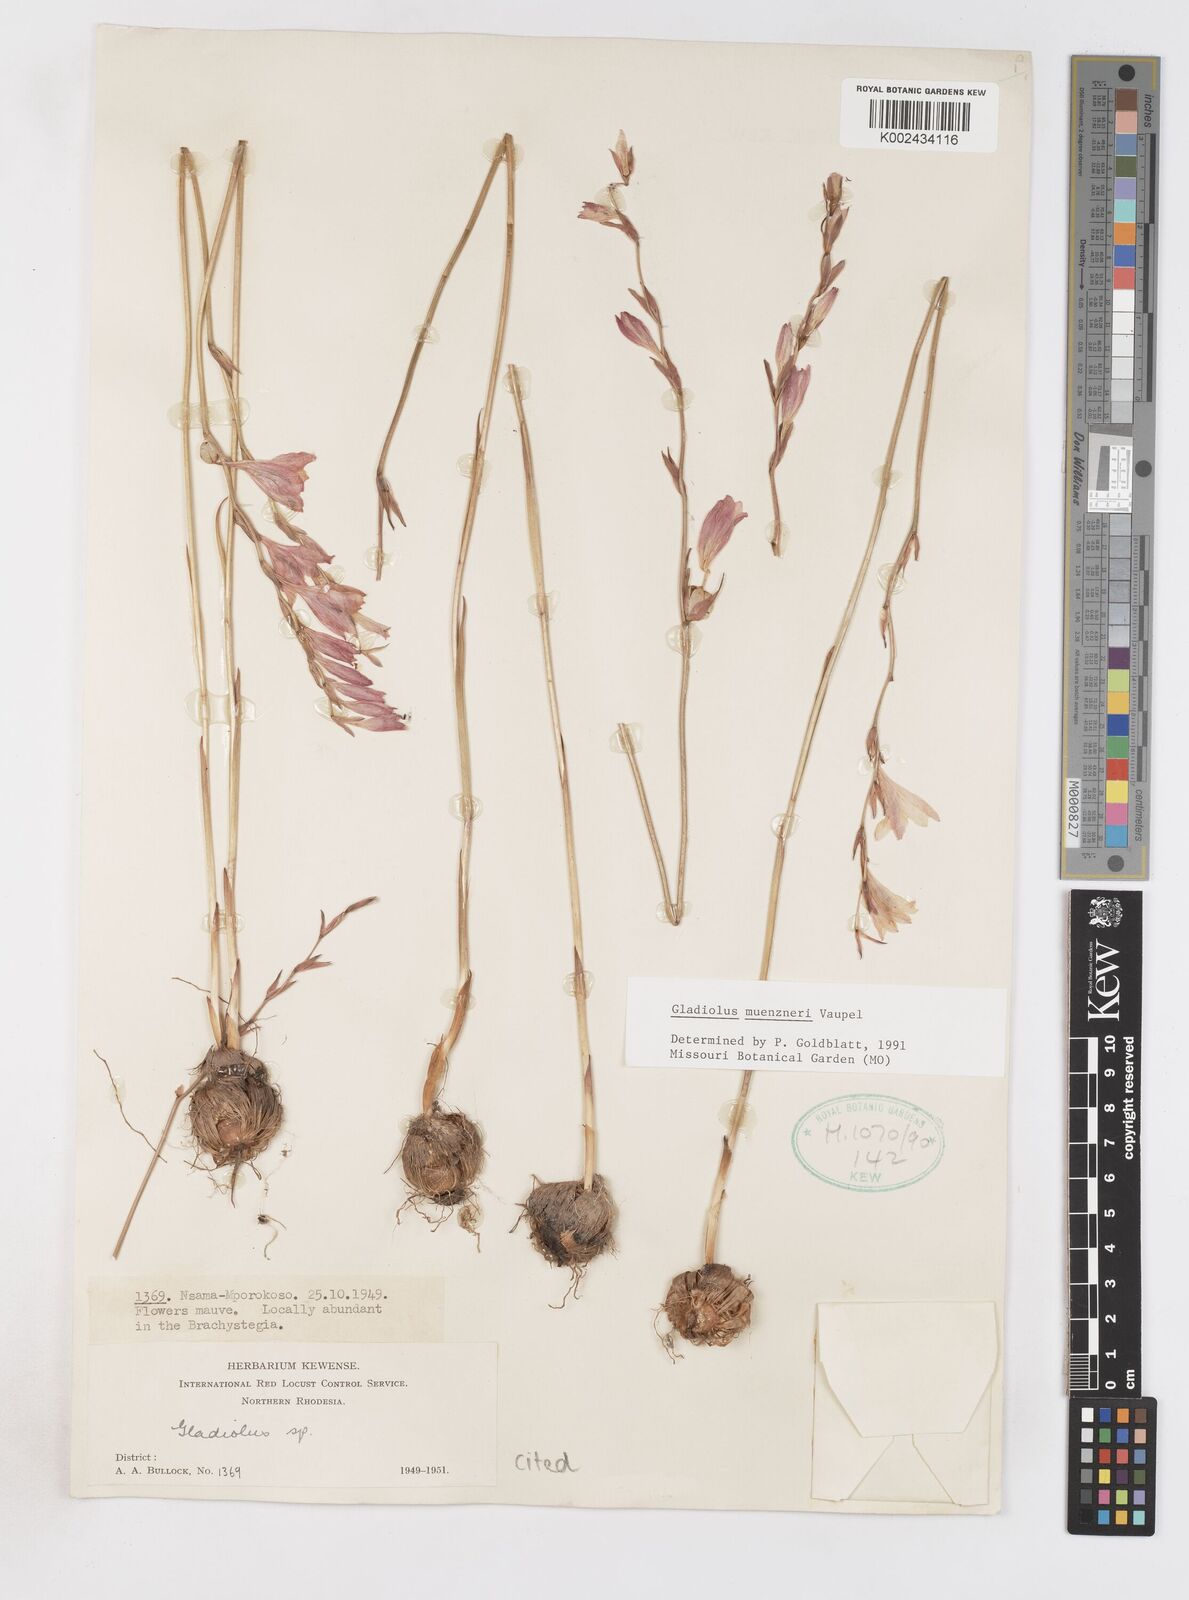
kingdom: Plantae
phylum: Tracheophyta
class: Liliopsida
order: Asparagales
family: Iridaceae
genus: Gladiolus
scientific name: Gladiolus muenzneri
